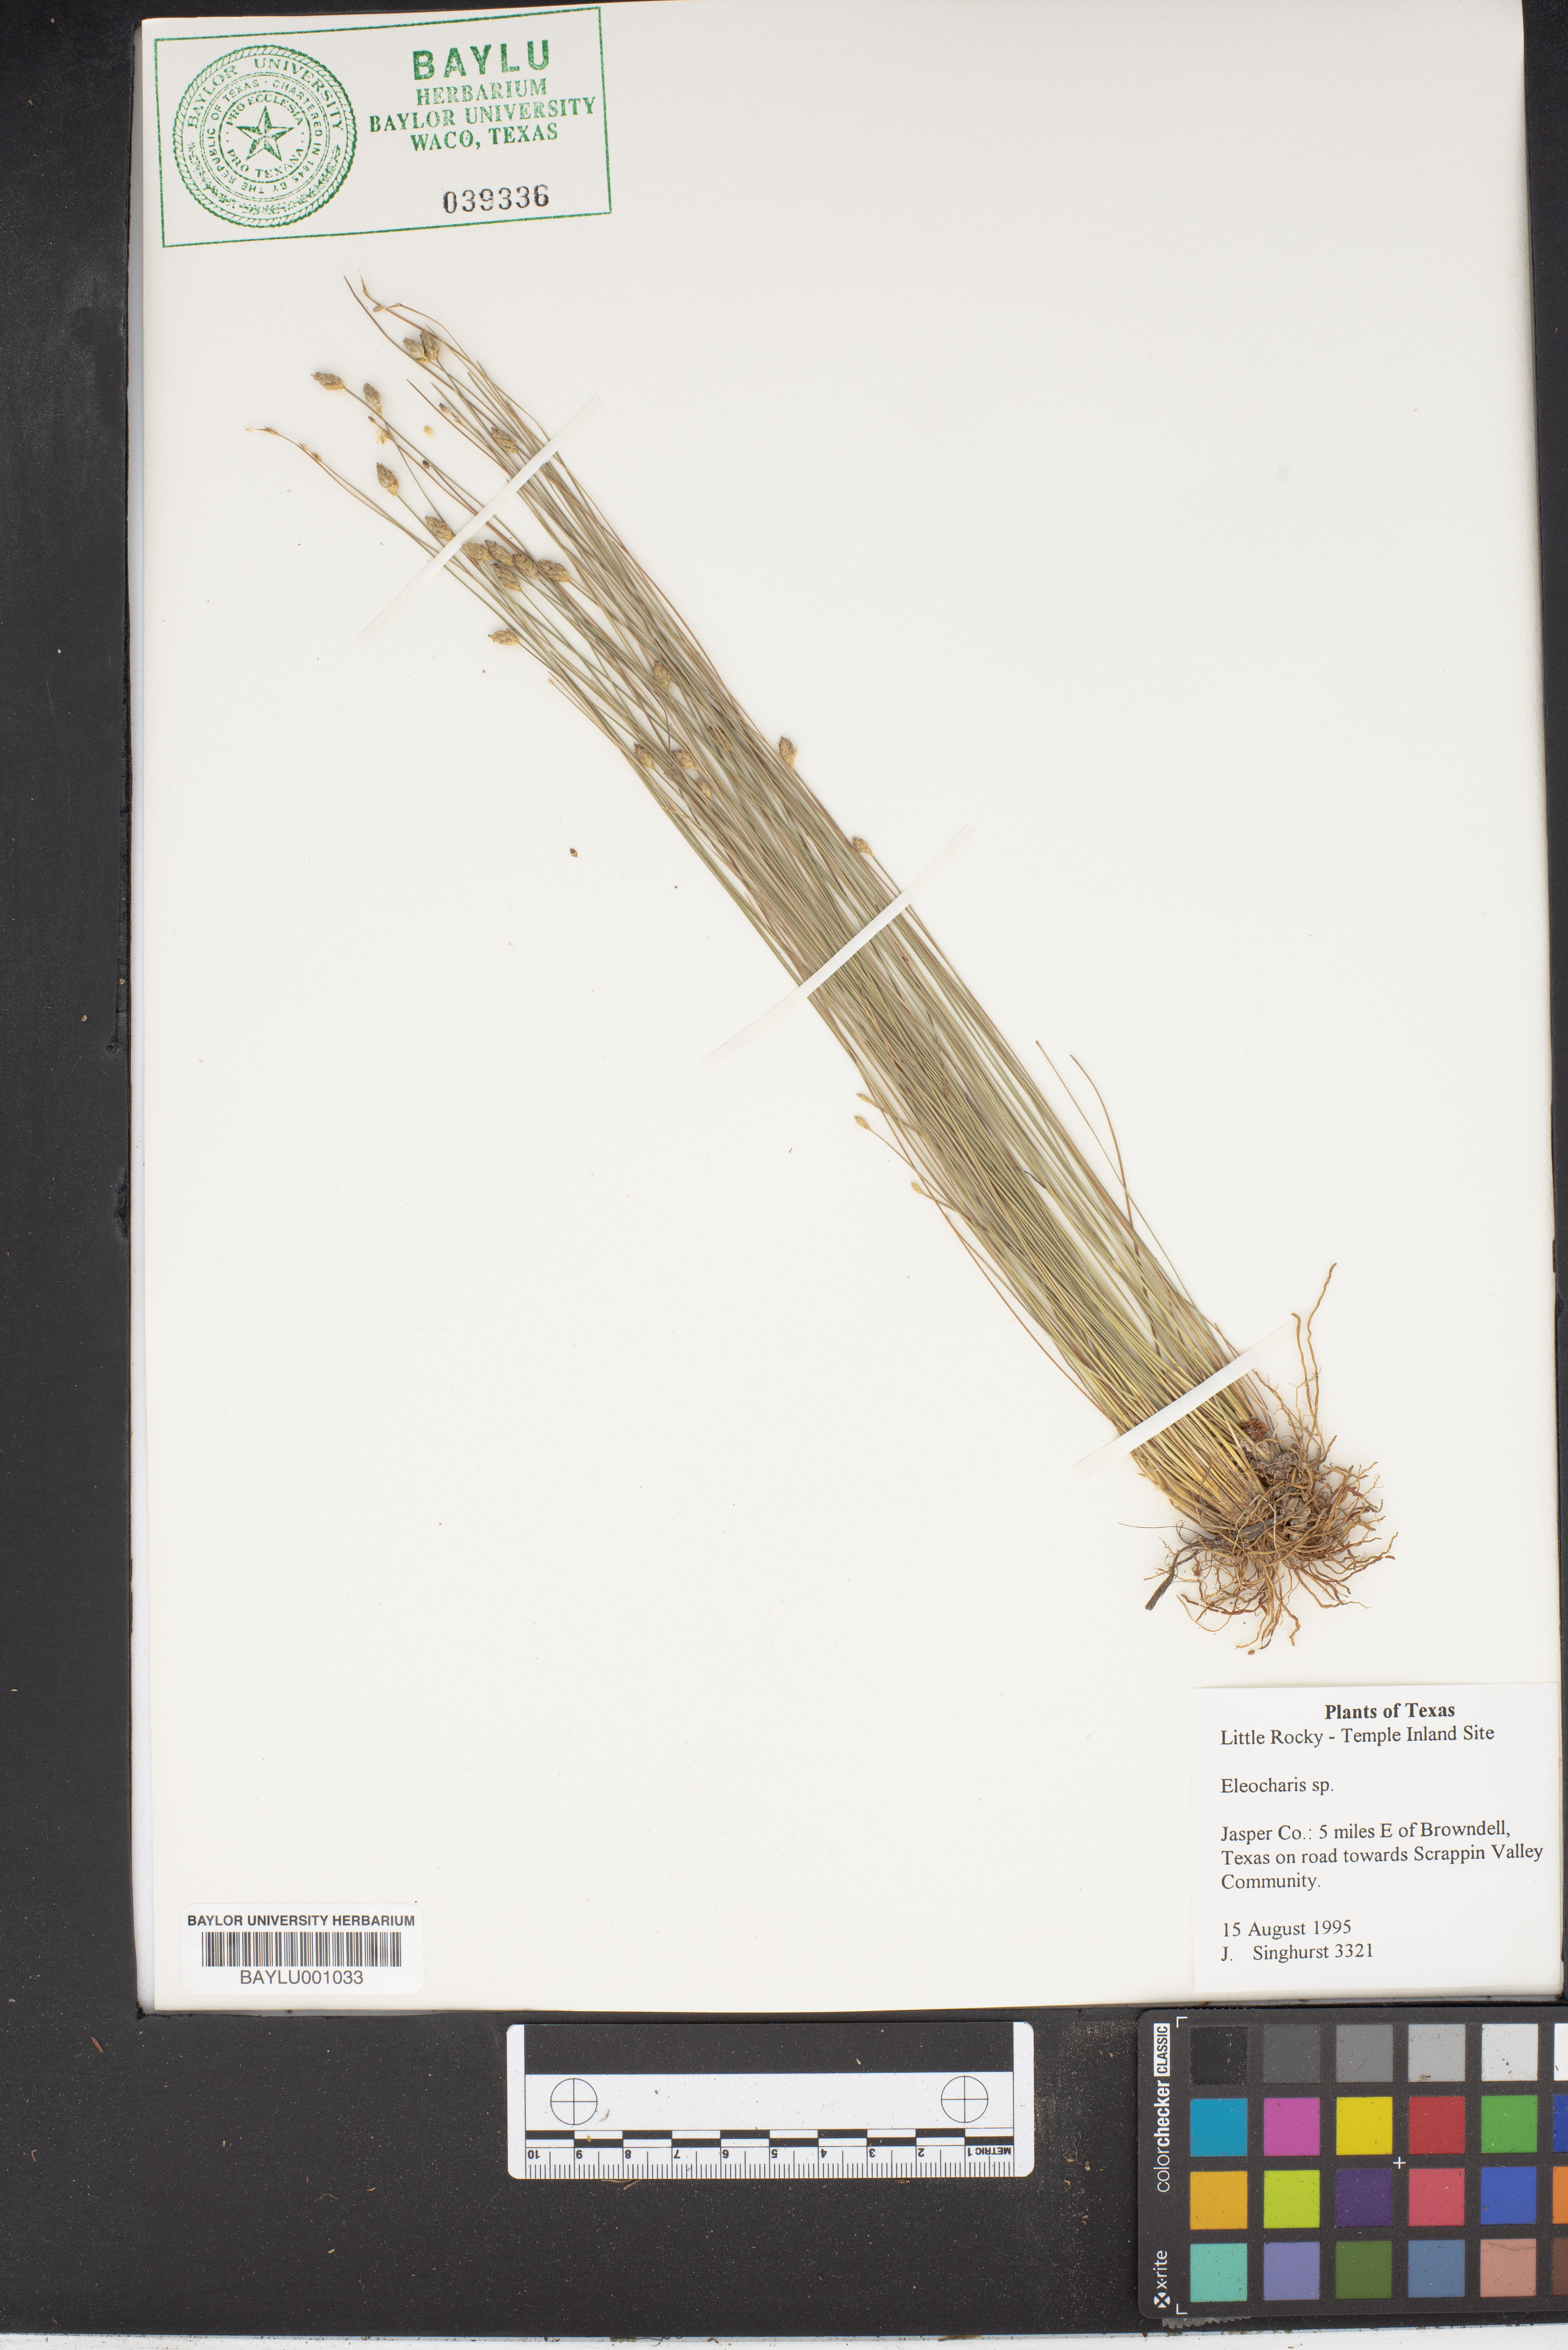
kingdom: Plantae
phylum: Tracheophyta
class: Liliopsida
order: Poales
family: Cyperaceae
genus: Eleocharis
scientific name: Eleocharis
